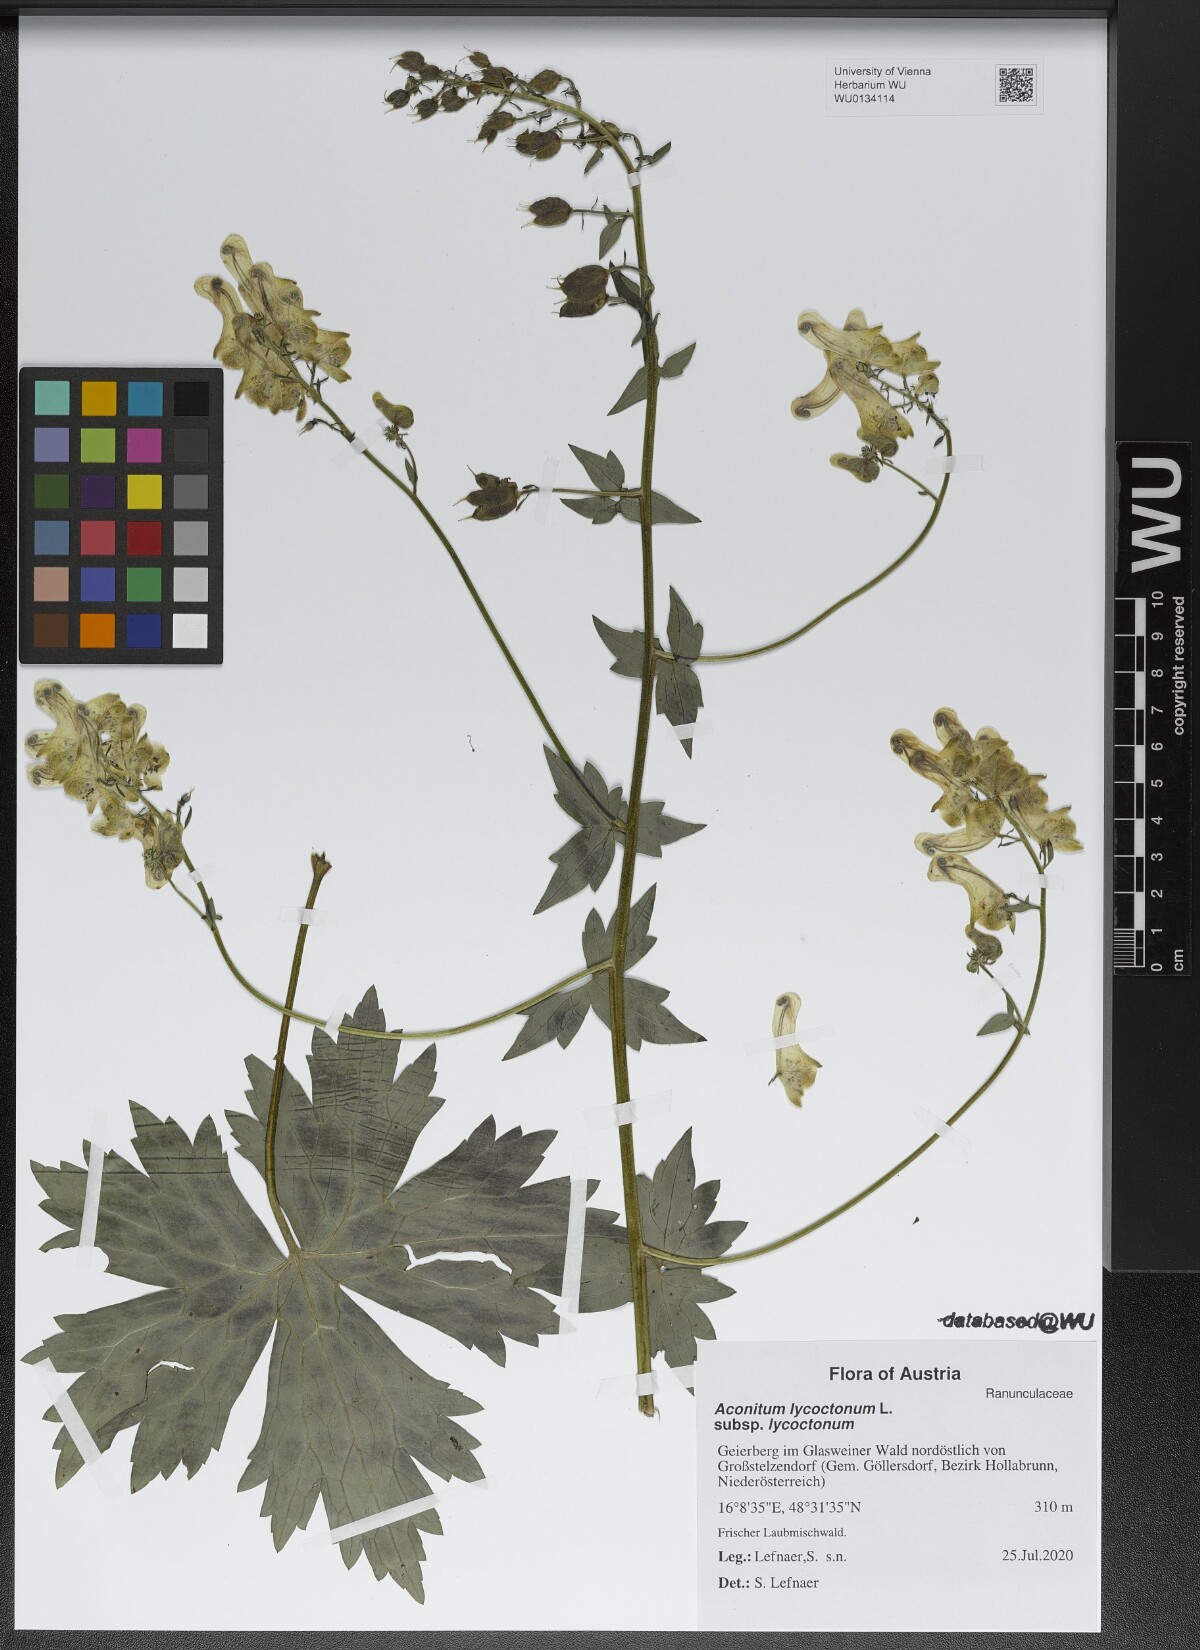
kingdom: Plantae
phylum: Tracheophyta
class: Magnoliopsida
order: Ranunculales
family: Ranunculaceae
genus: Aconitum
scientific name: Aconitum lycoctonum
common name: Wolf's-bane
